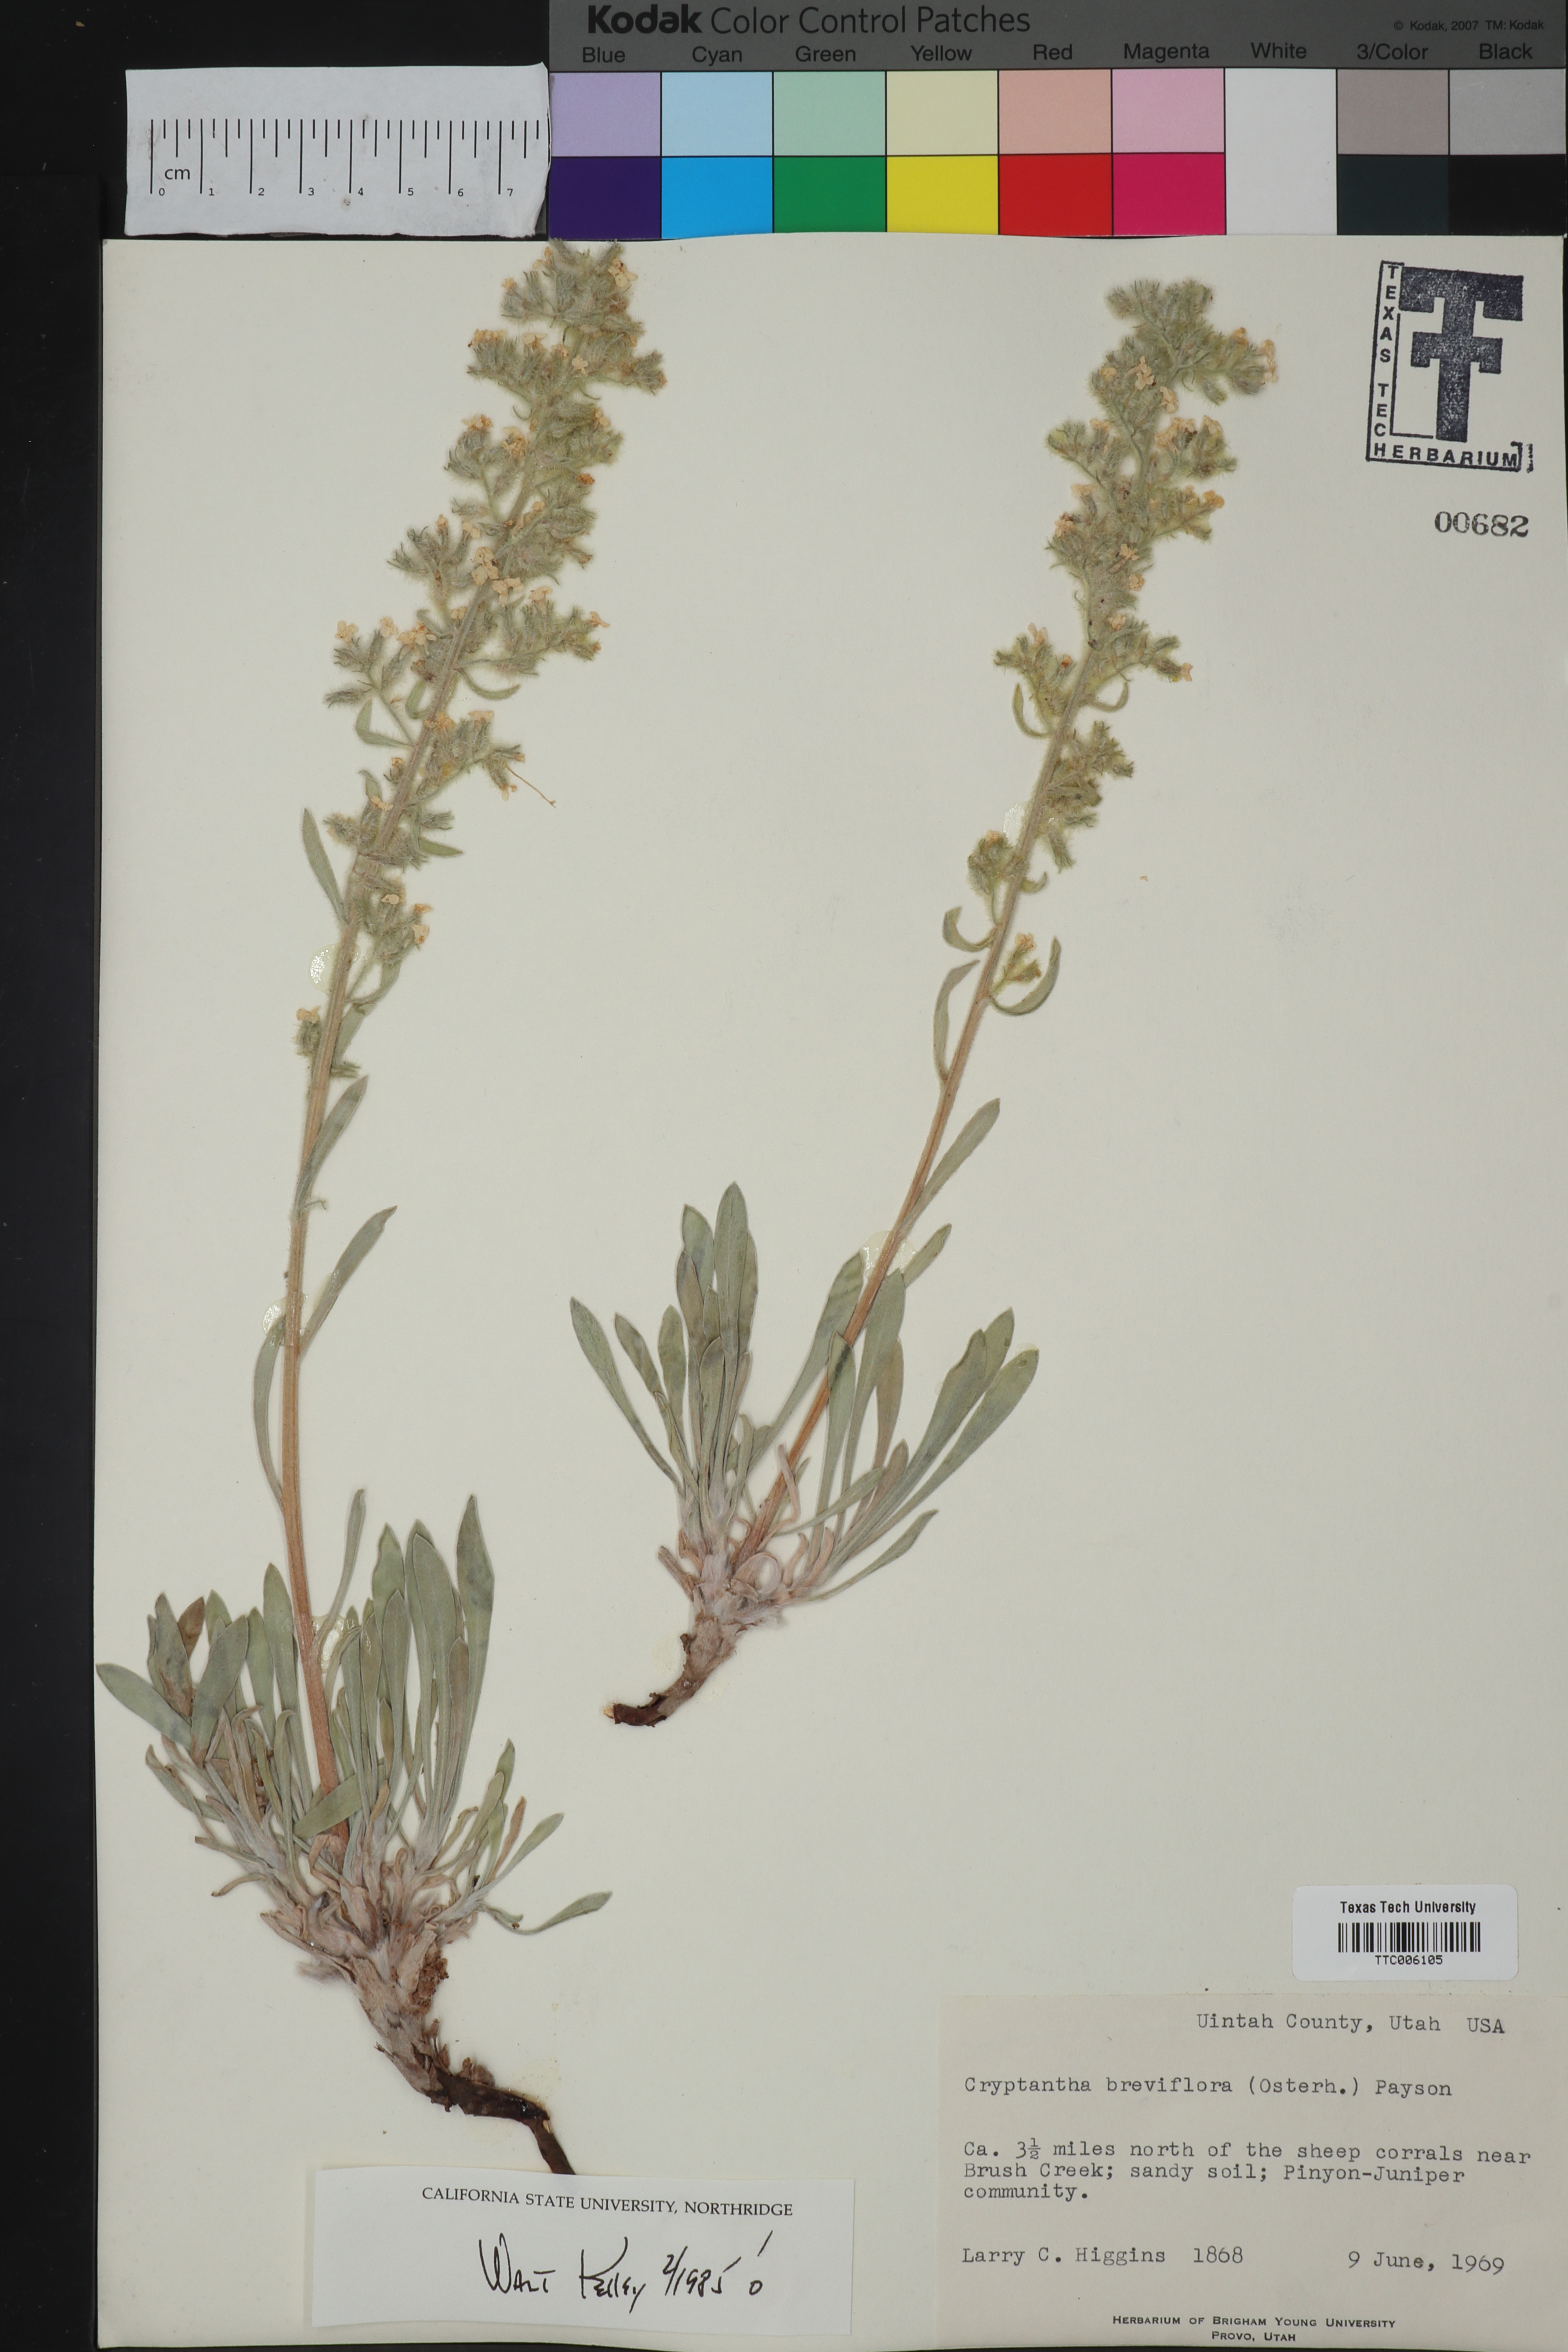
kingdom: Plantae
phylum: Tracheophyta
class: Magnoliopsida
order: Boraginales
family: Boraginaceae
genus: Oreocarya
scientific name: Oreocarya breviflora
